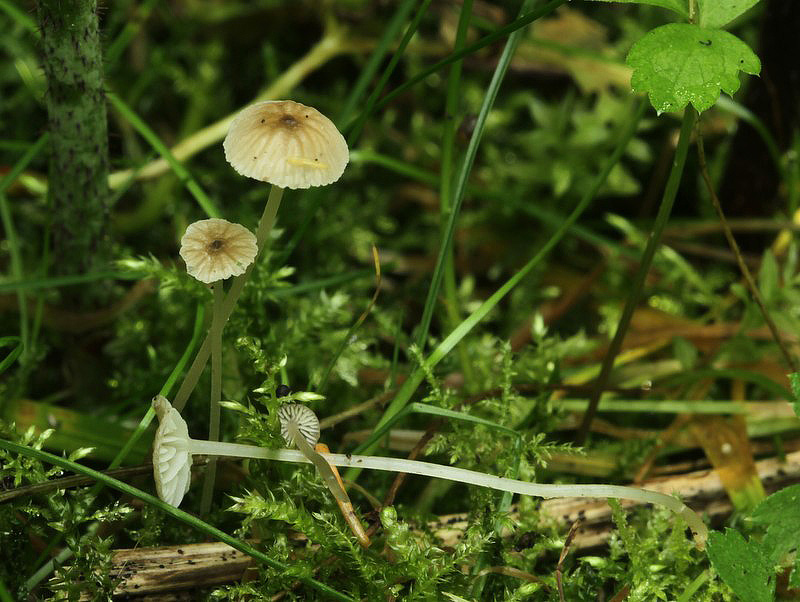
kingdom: Fungi
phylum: Basidiomycota
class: Agaricomycetes
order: Agaricales
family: Porotheleaceae
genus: Phloeomana
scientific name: Phloeomana speirea
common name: kvist-huesvamp
